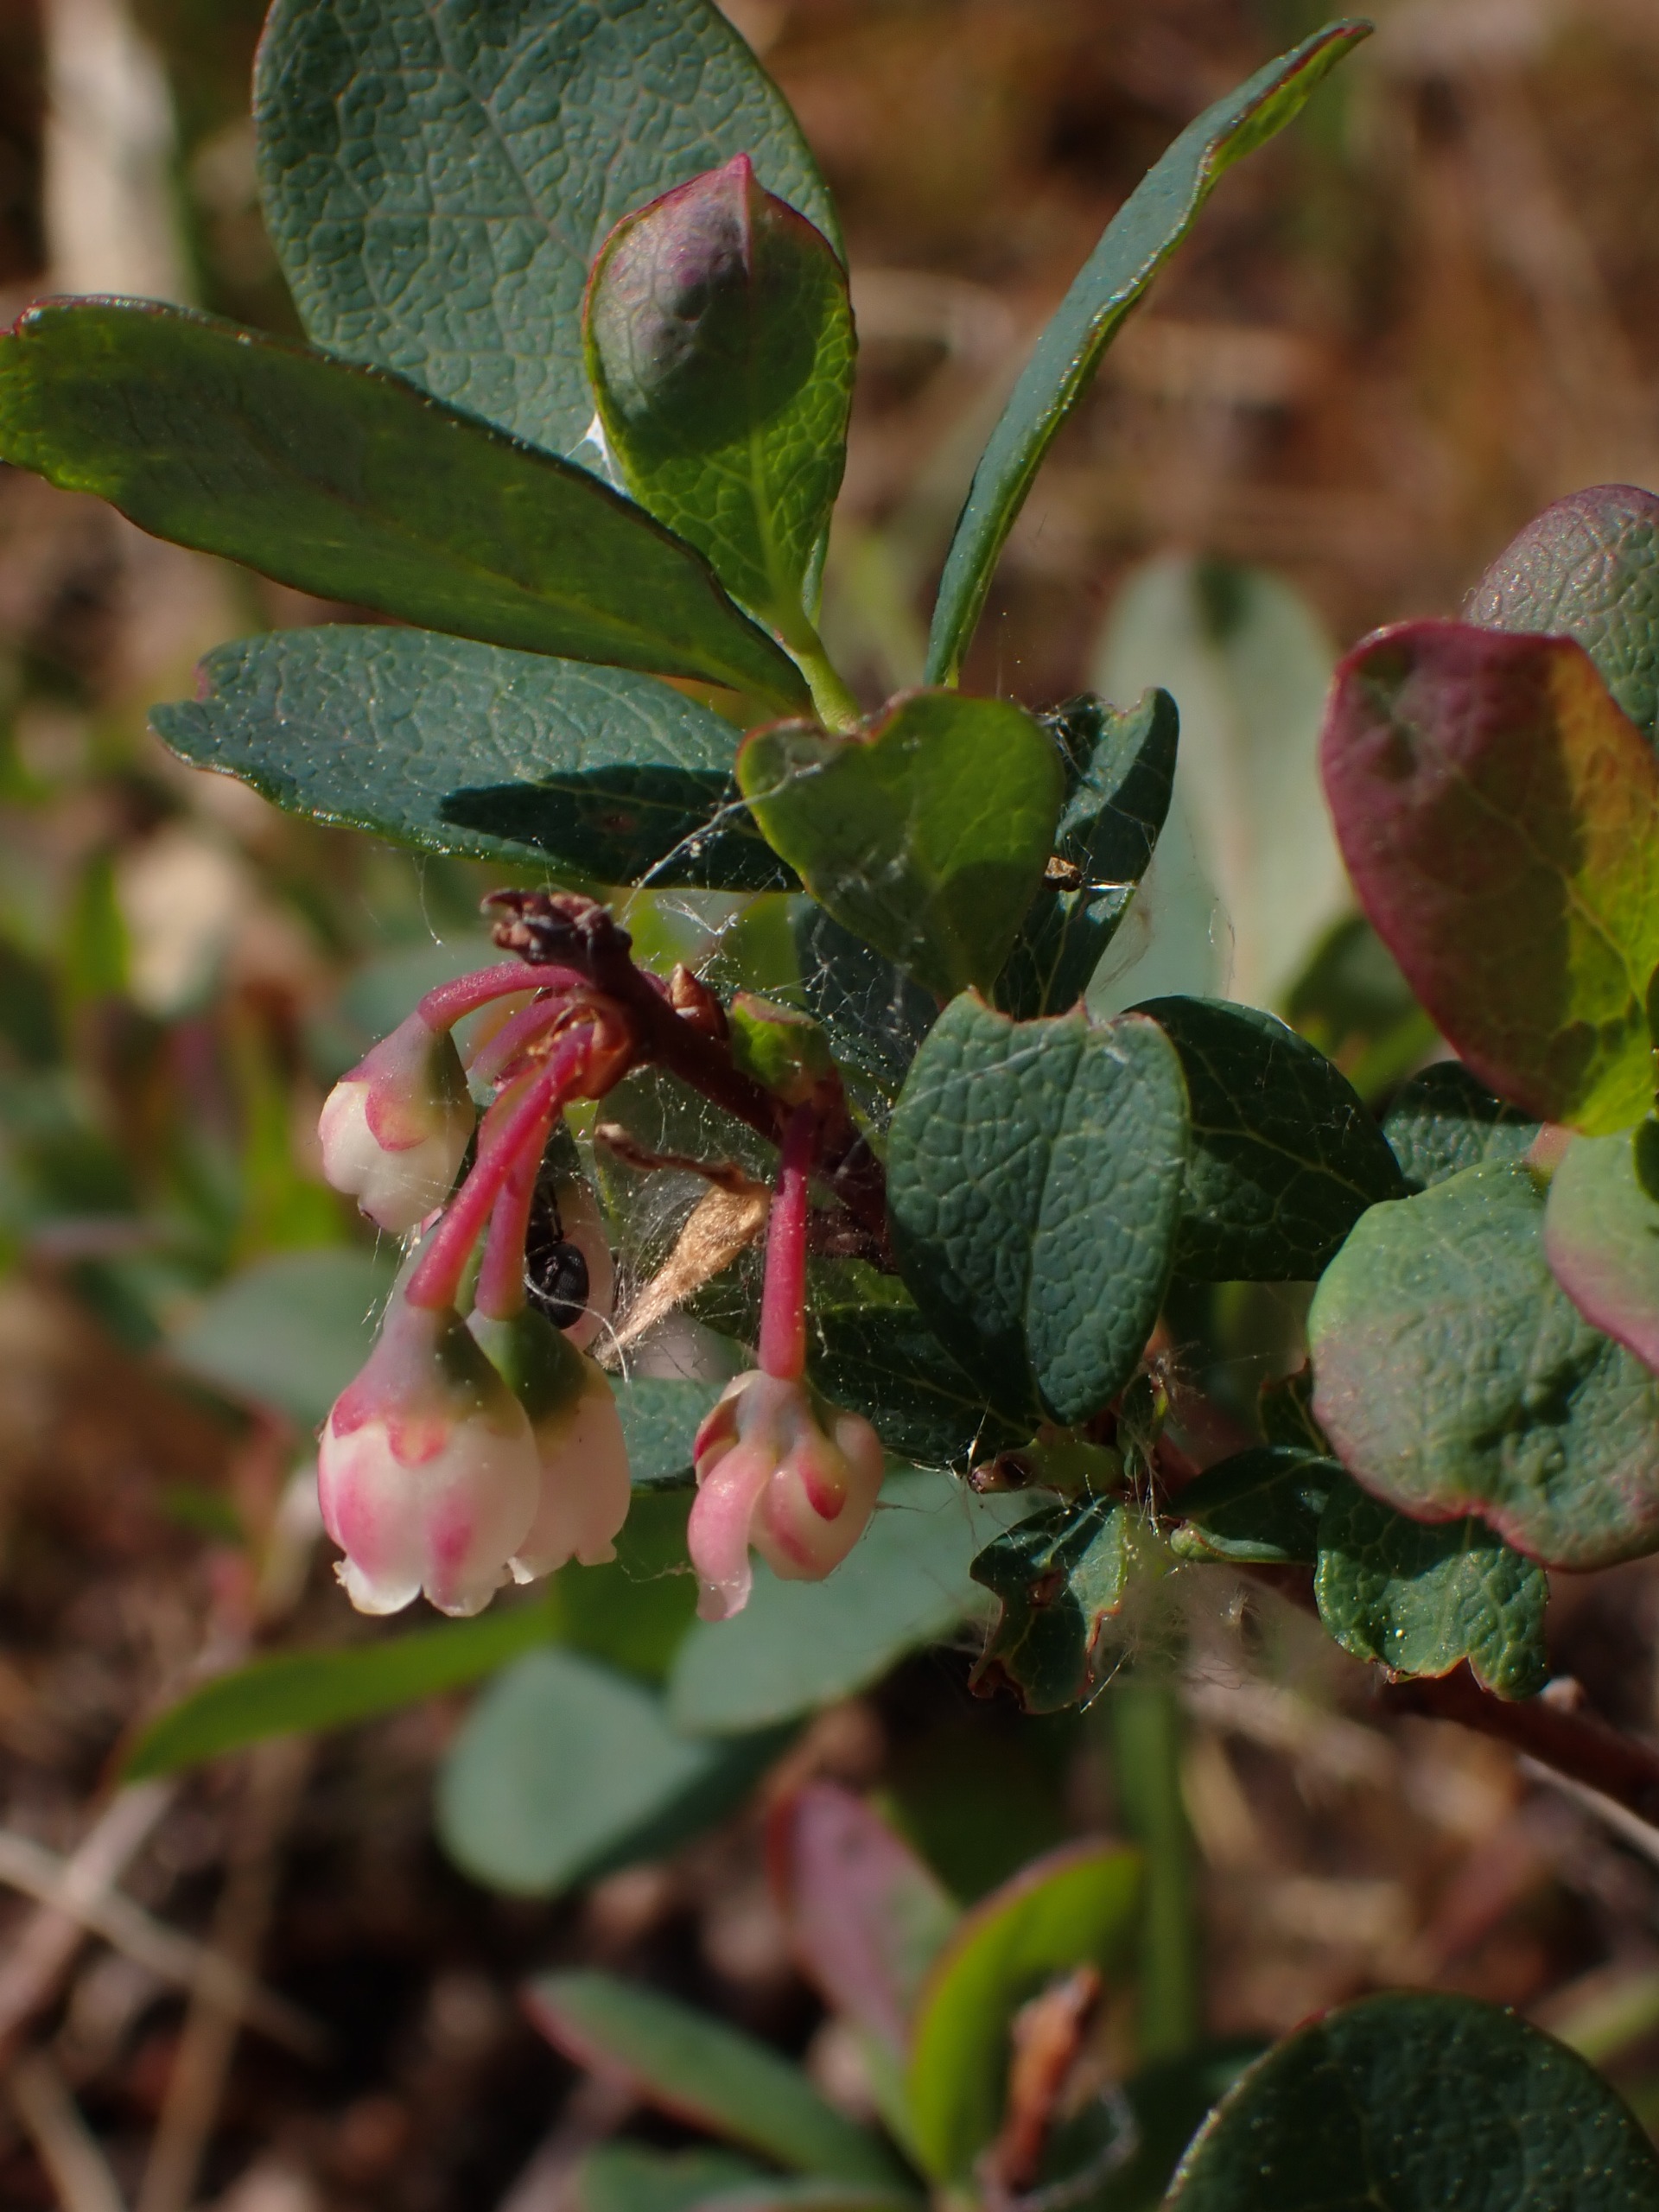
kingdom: Plantae
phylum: Tracheophyta
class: Magnoliopsida
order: Ericales
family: Ericaceae
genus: Vaccinium
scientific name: Vaccinium uliginosum
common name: Mose-bølle
